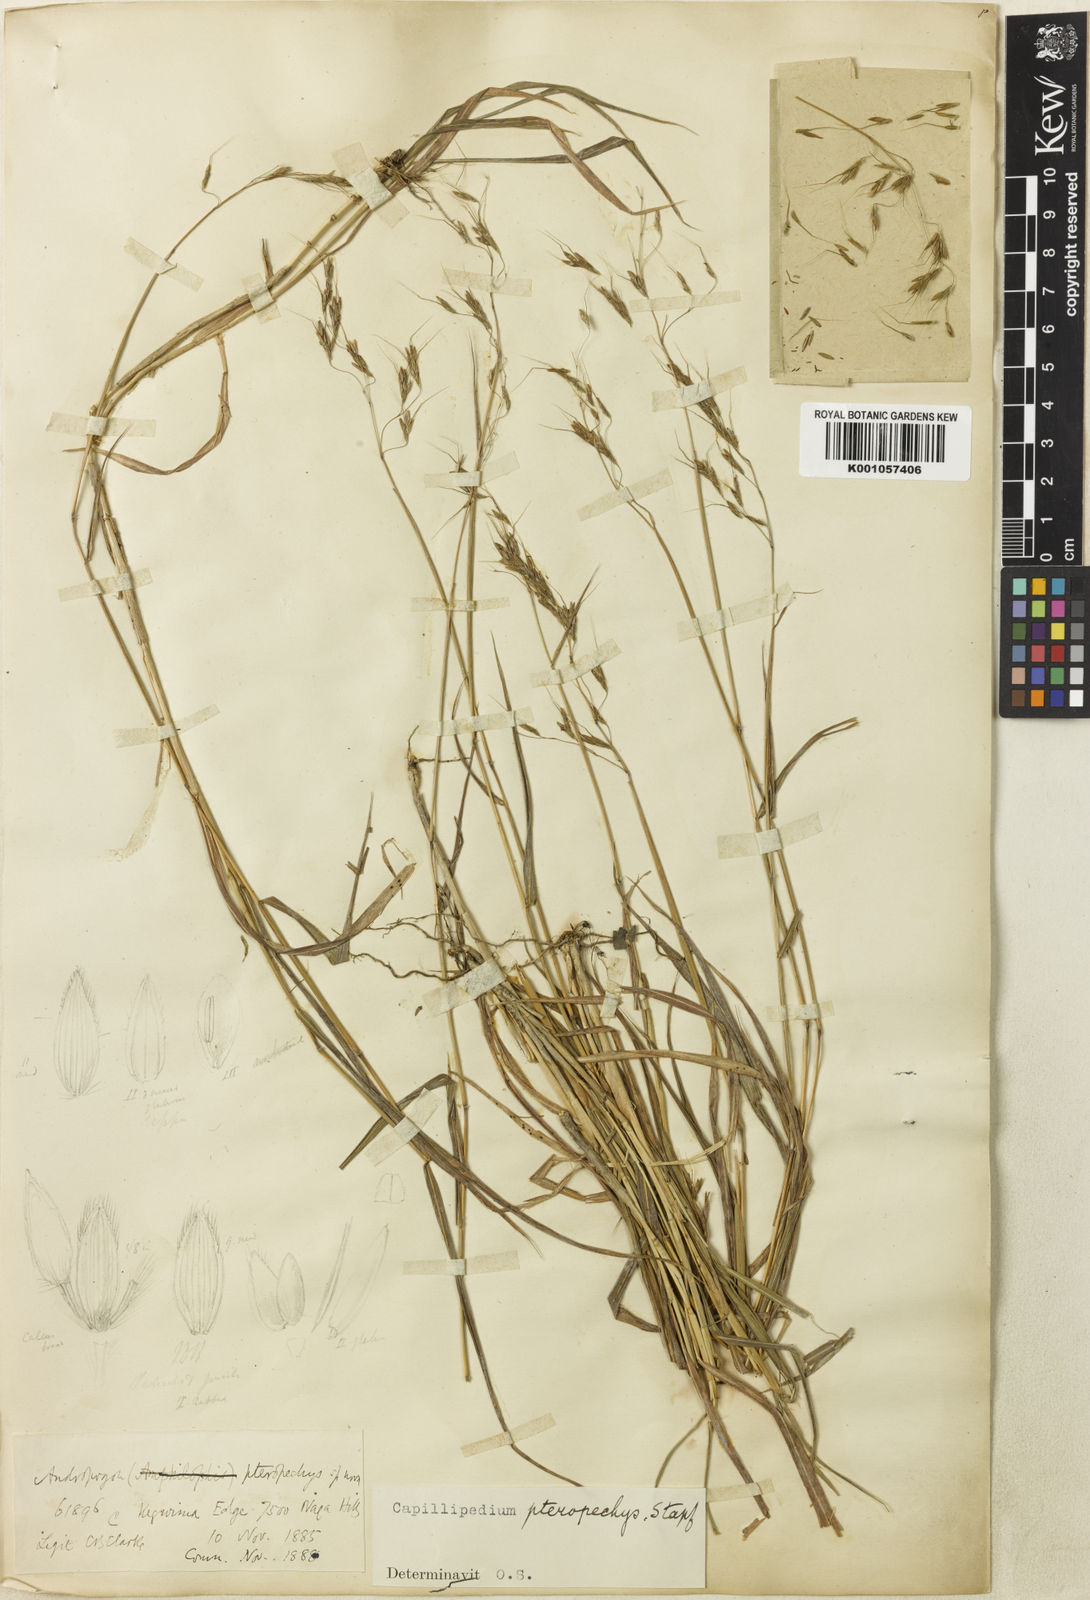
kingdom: Plantae
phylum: Tracheophyta
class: Liliopsida
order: Poales
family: Poaceae
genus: Capillipedium
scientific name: Capillipedium pteropechys
